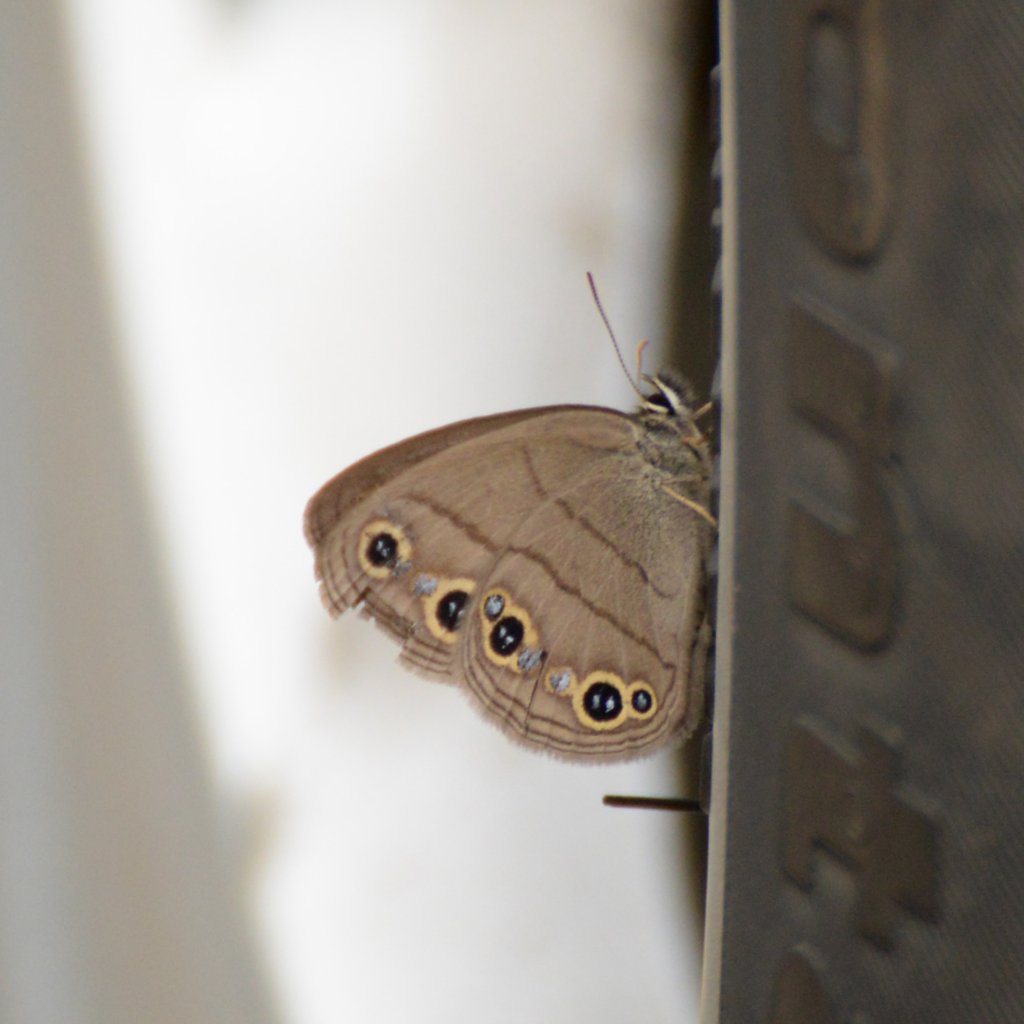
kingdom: Animalia
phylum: Arthropoda
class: Insecta
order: Lepidoptera
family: Nymphalidae
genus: Euptychia
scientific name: Euptychia cymela
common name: Little Wood Satyr
